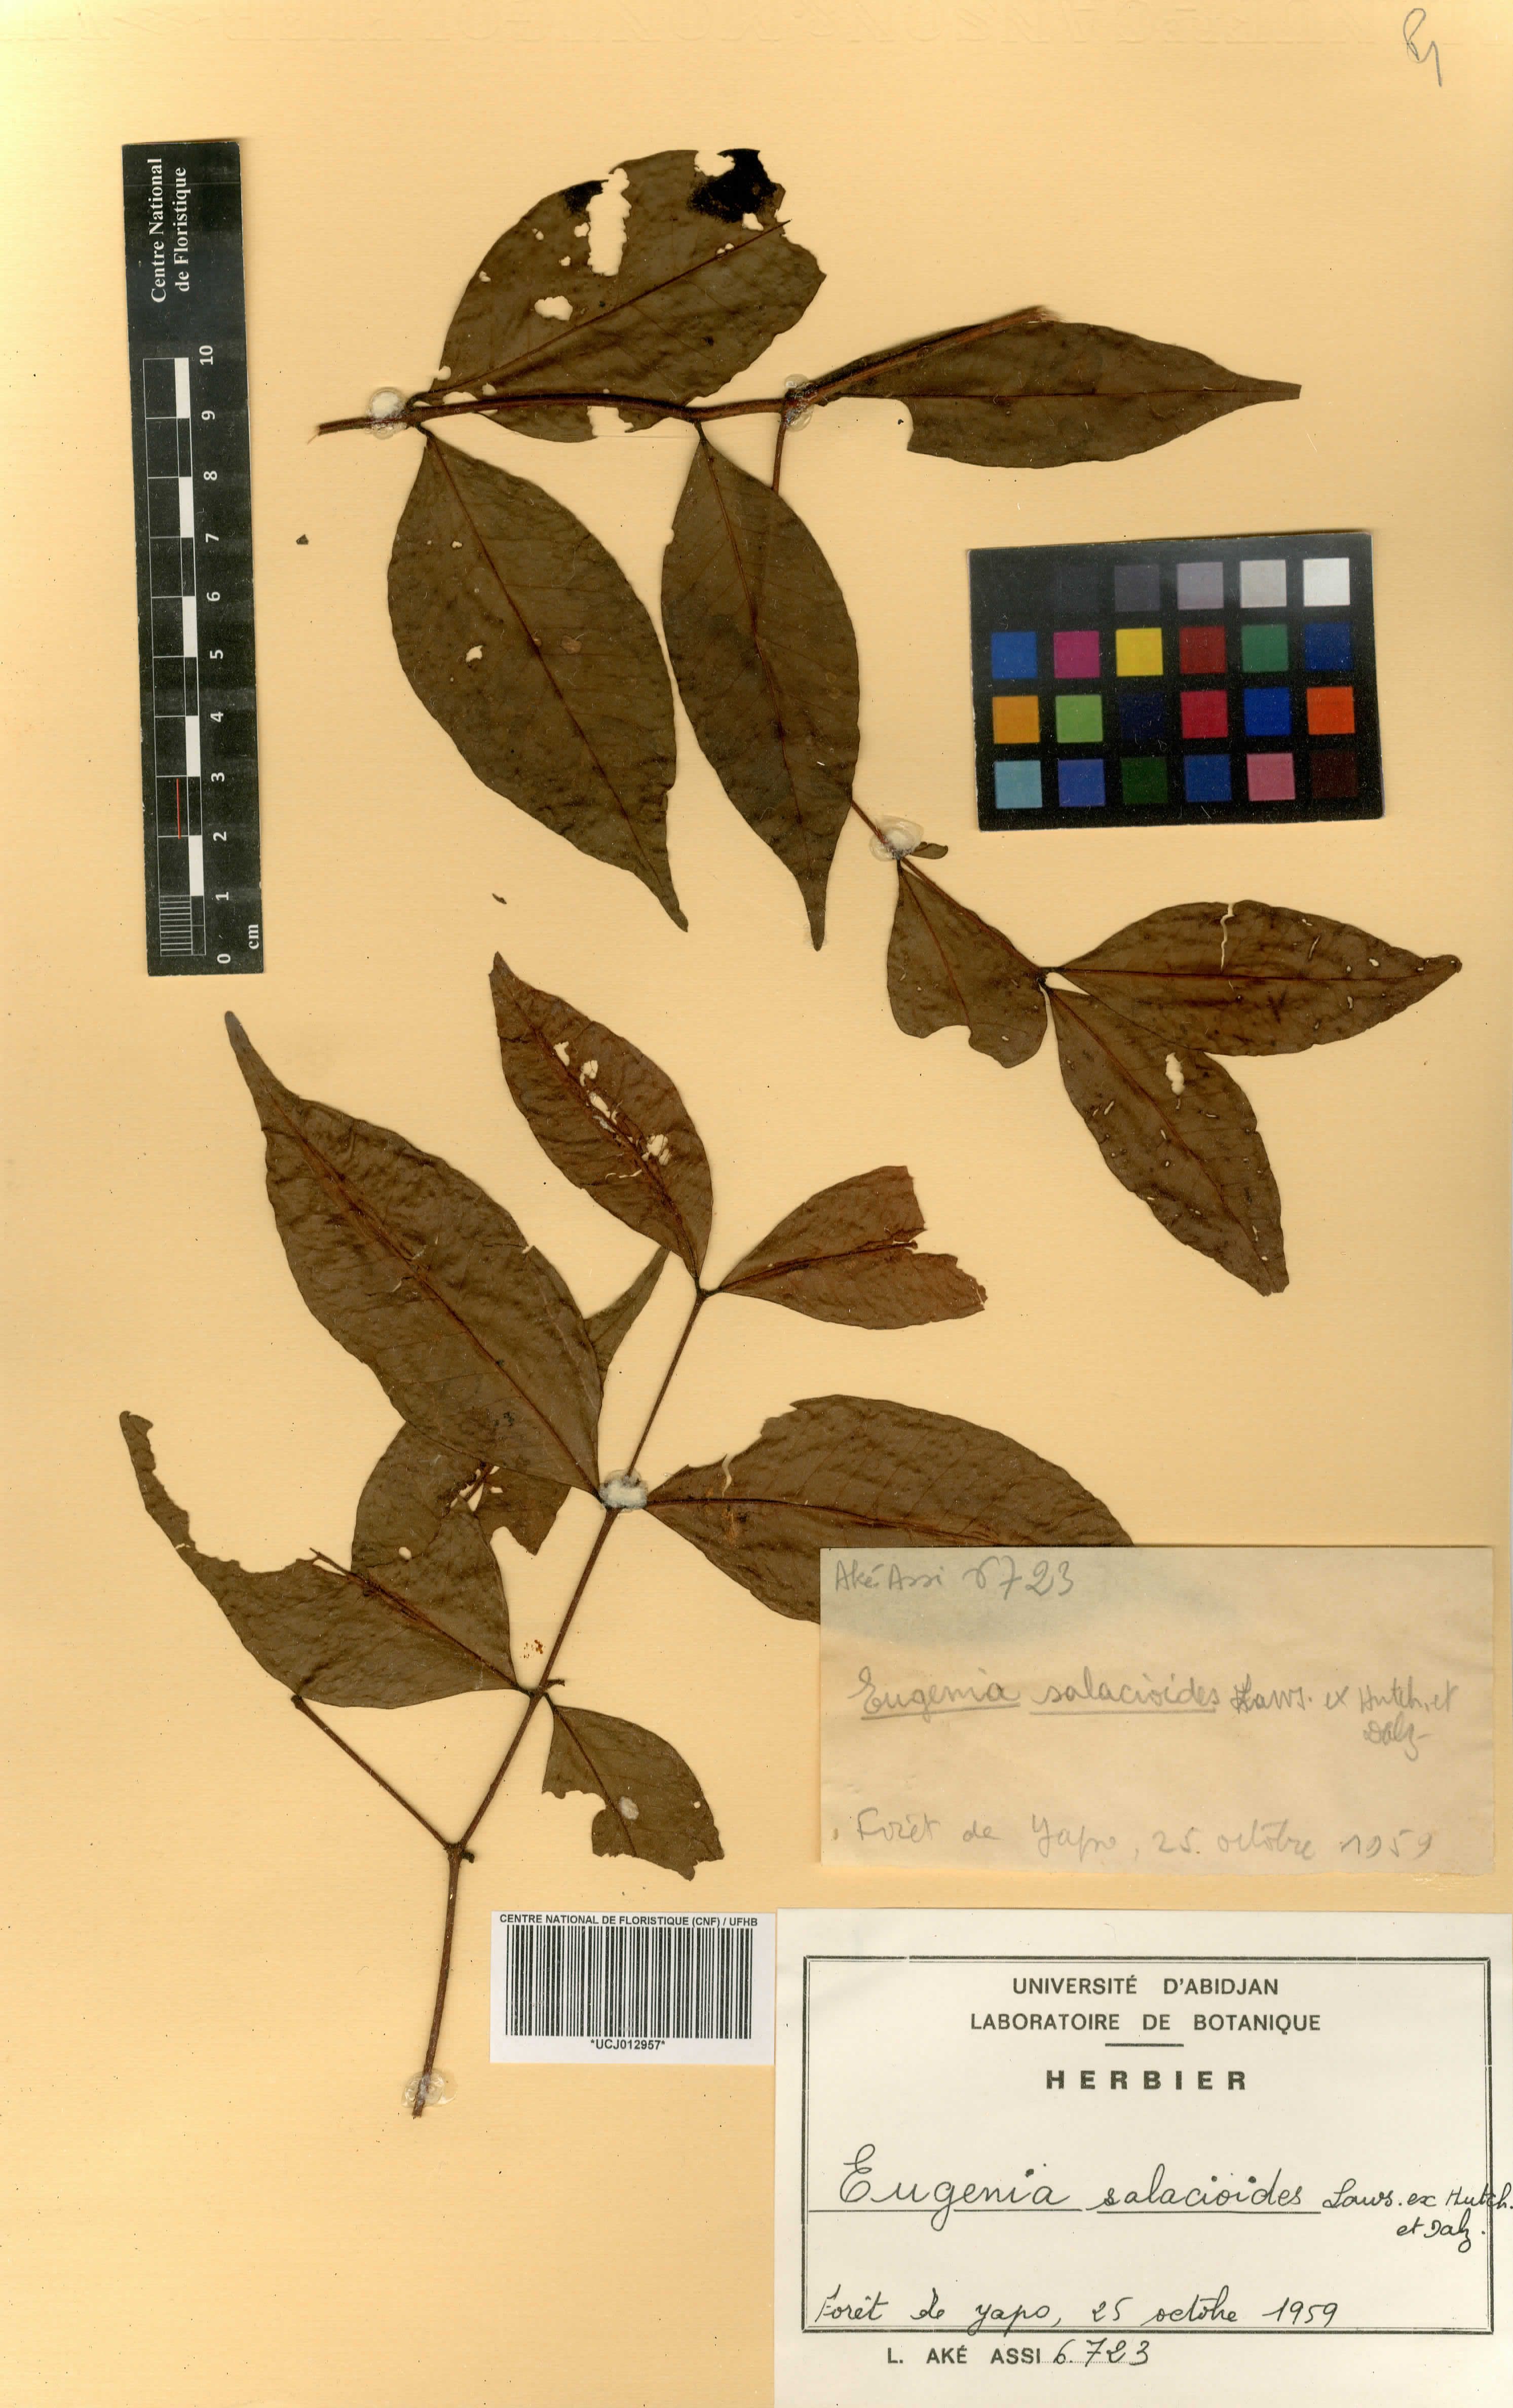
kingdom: Plantae
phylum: Tracheophyta
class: Magnoliopsida
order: Myrtales
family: Myrtaceae
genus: Eugenia
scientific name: Eugenia salacioides
